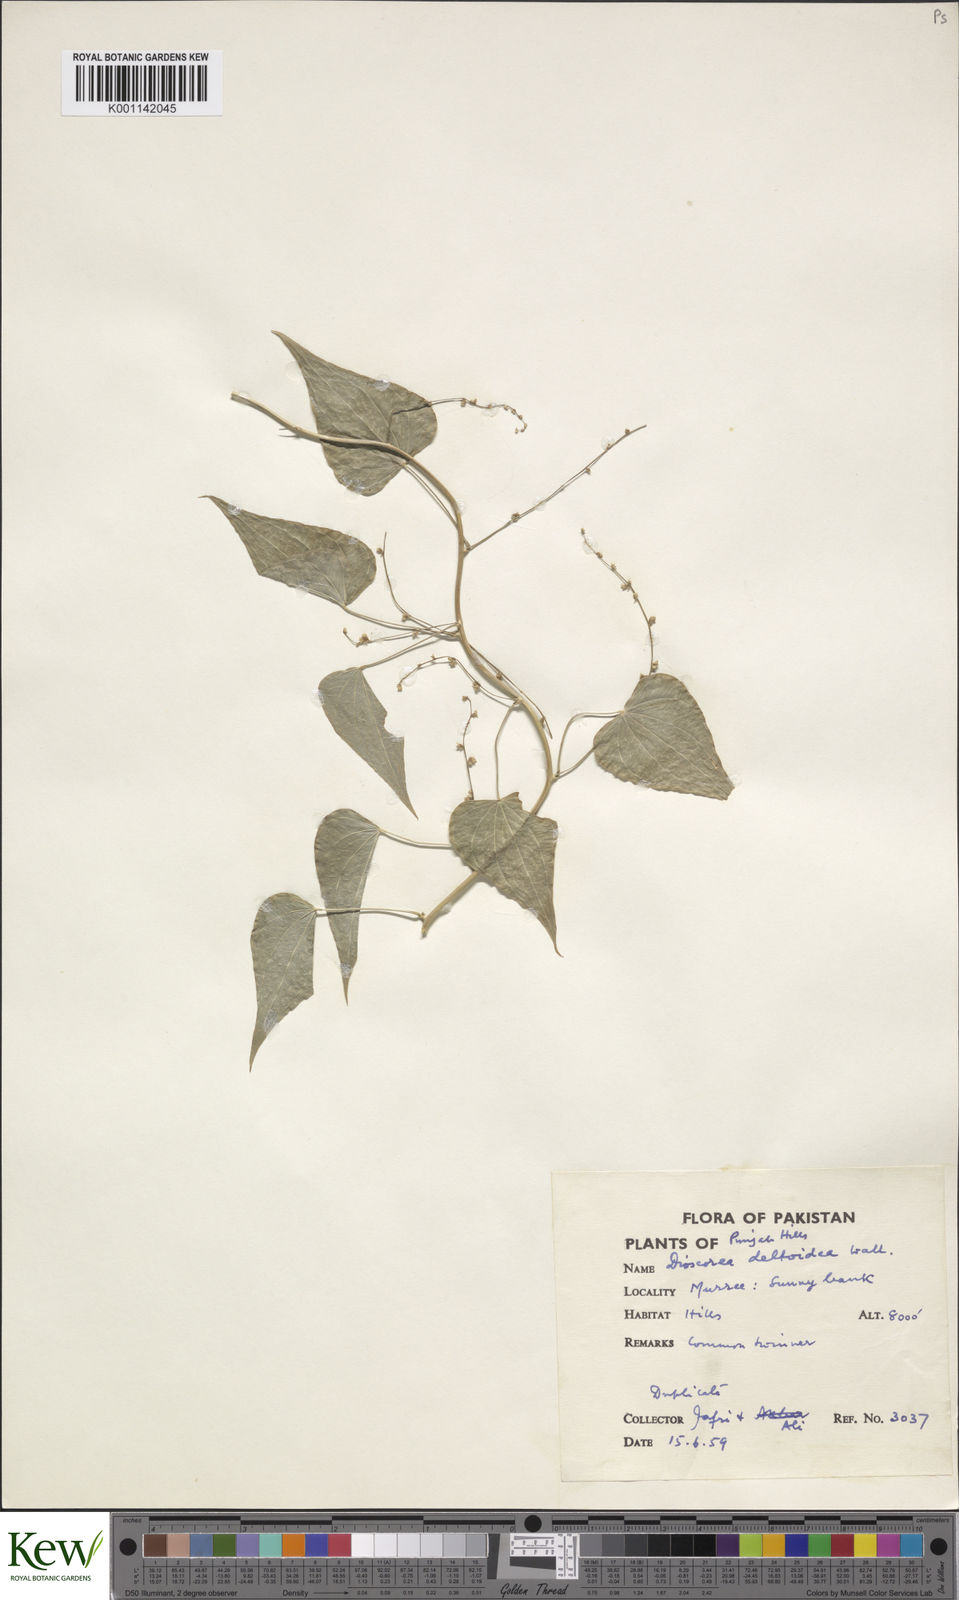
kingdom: Plantae
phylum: Tracheophyta
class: Liliopsida
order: Dioscoreales
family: Dioscoreaceae
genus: Dioscorea
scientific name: Dioscorea deltoidea
